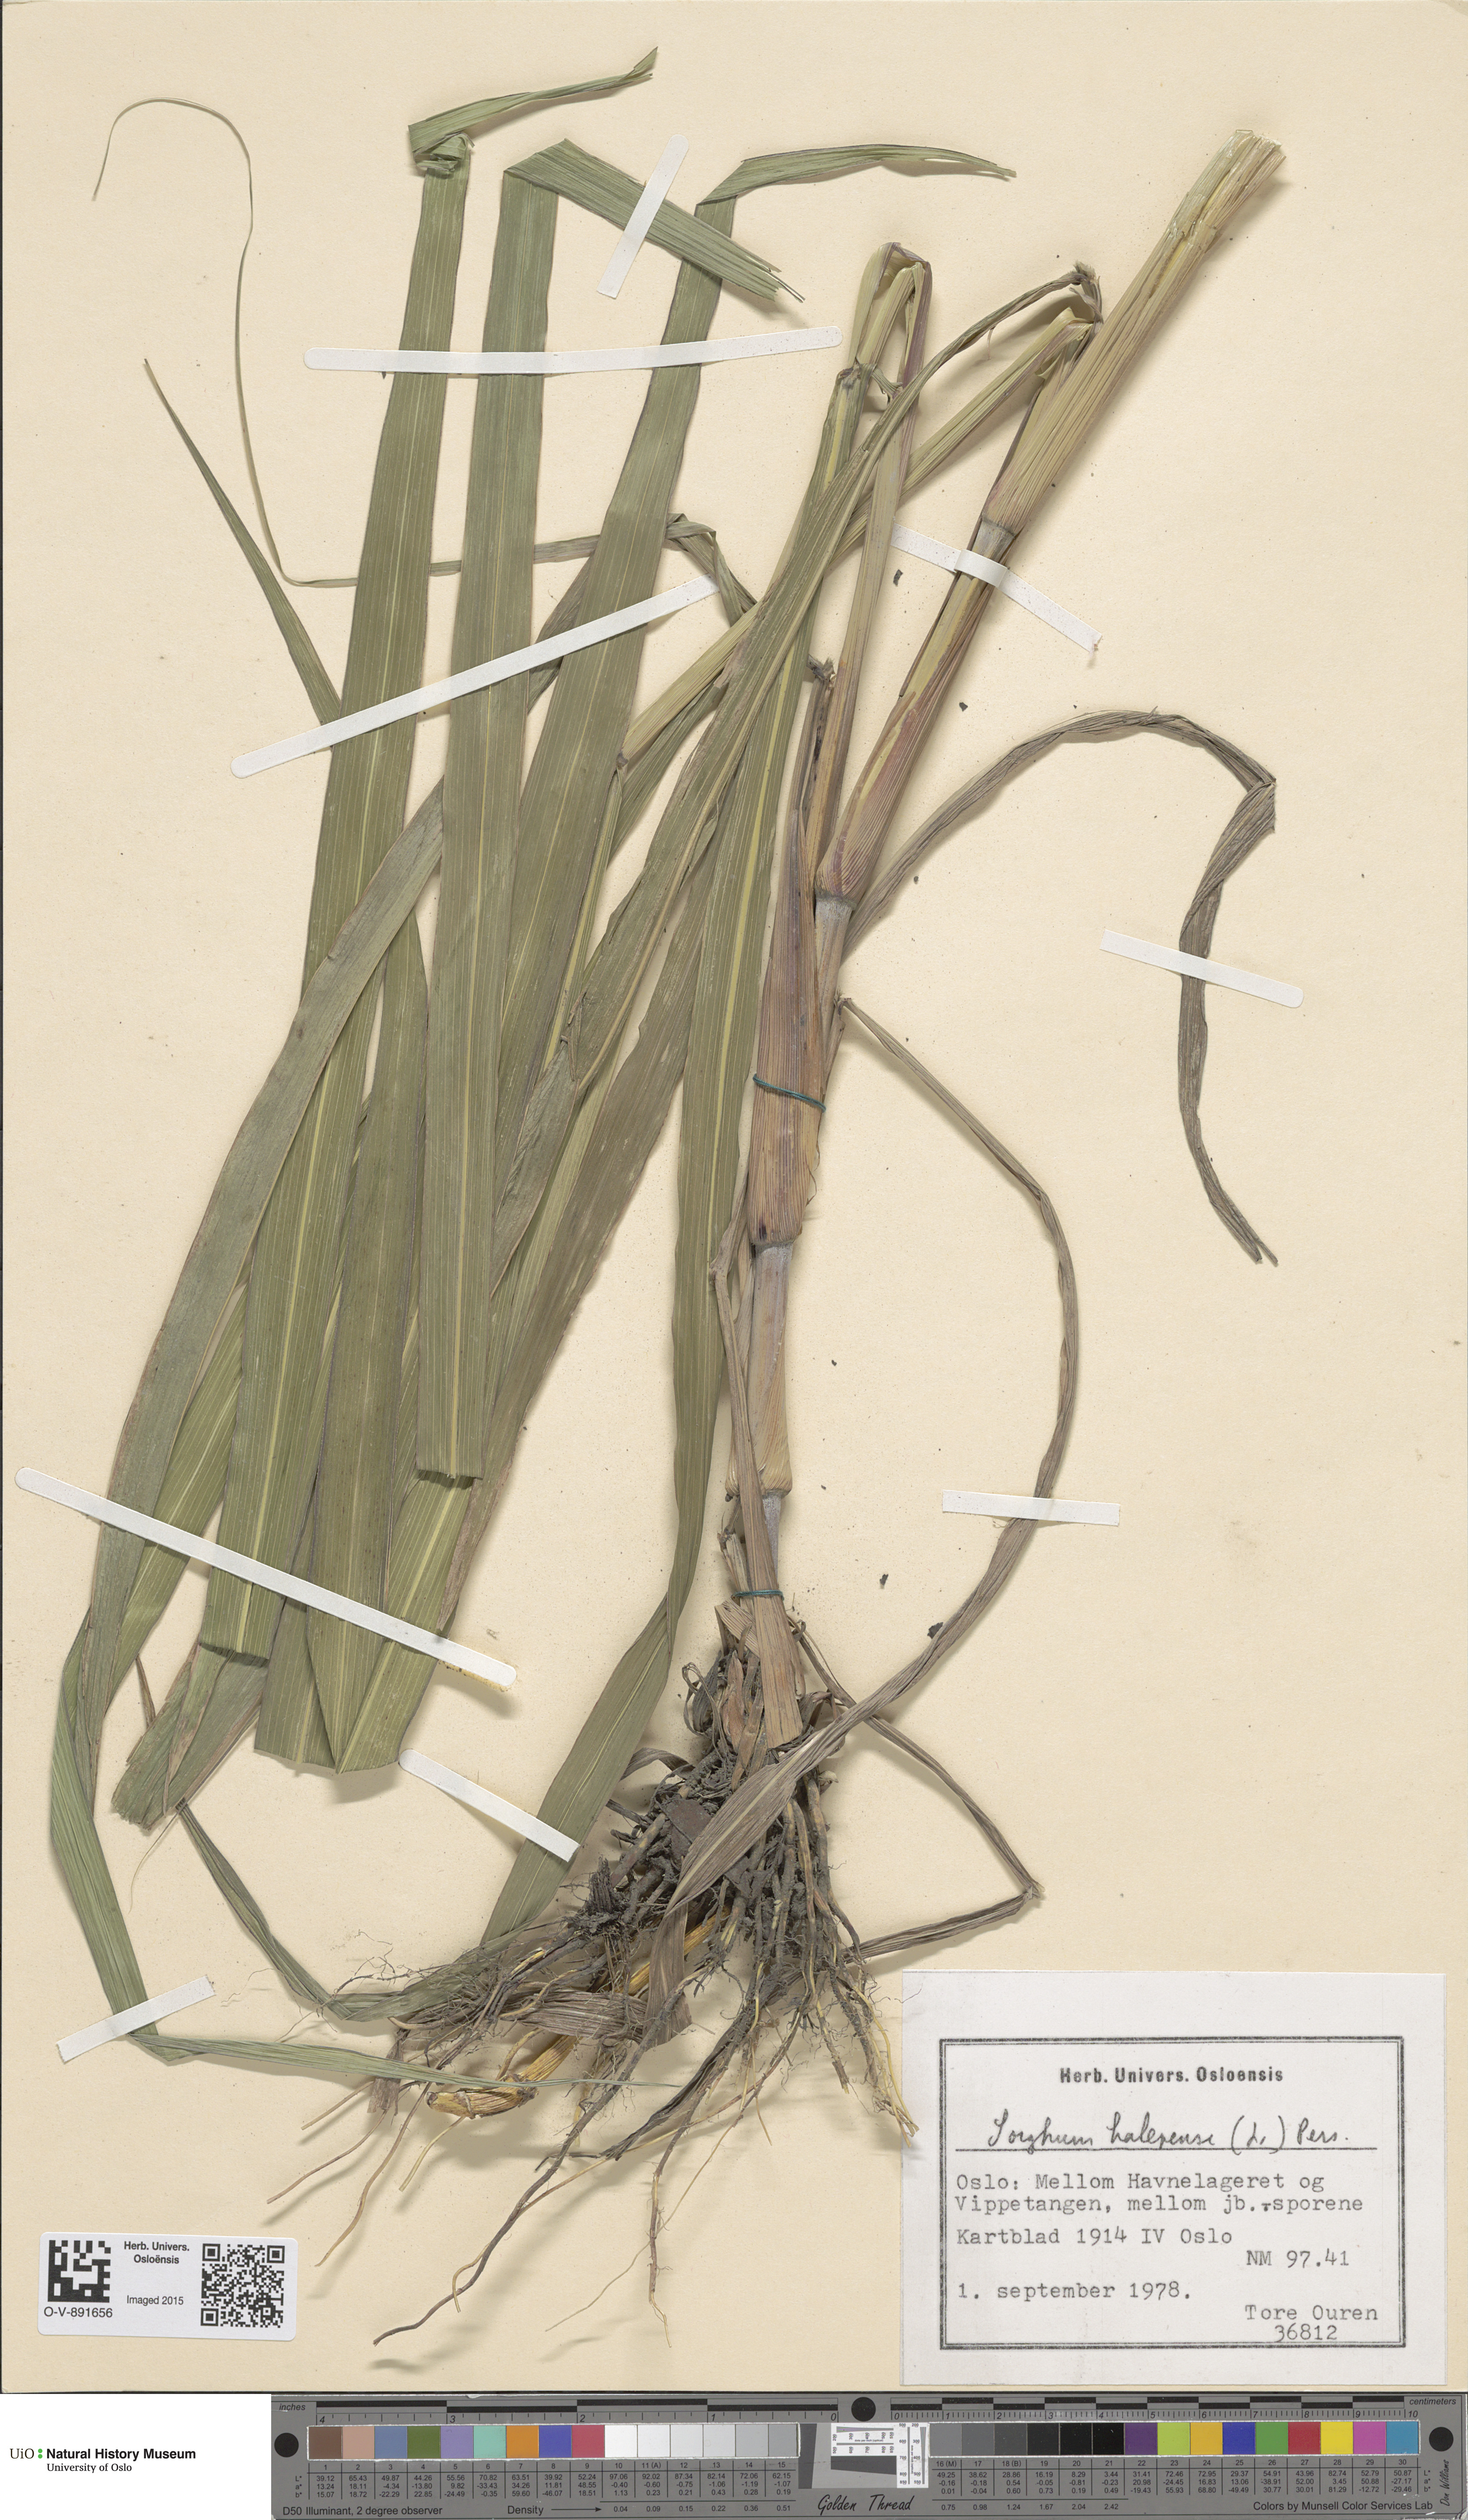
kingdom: Plantae
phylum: Tracheophyta
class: Liliopsida
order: Poales
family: Poaceae
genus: Sorghum
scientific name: Sorghum halepense
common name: Johnson-grass
